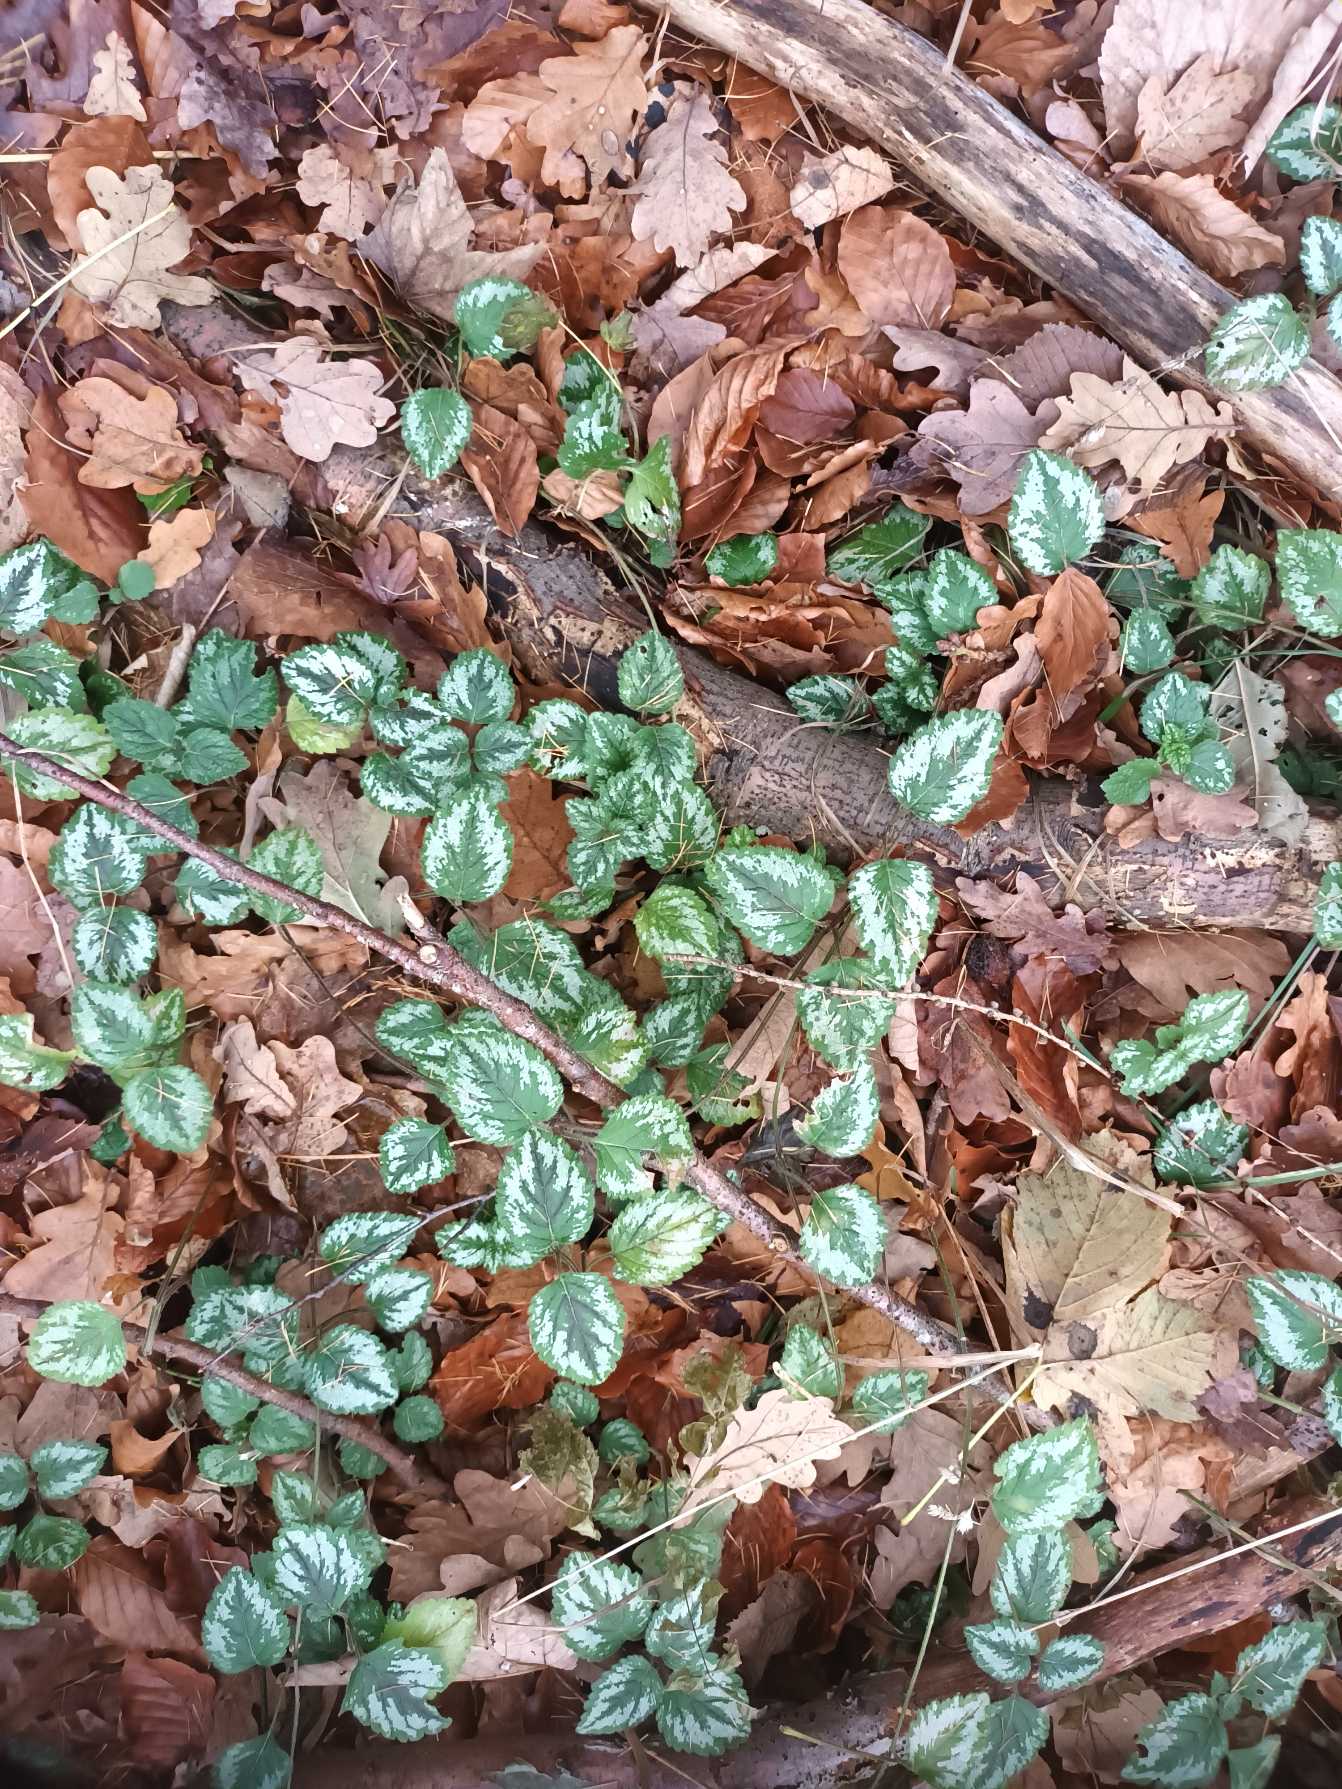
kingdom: Plantae
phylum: Tracheophyta
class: Magnoliopsida
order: Lamiales
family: Lamiaceae
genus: Lamium
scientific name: Lamium galeobdolon
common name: Have-guldnælde
